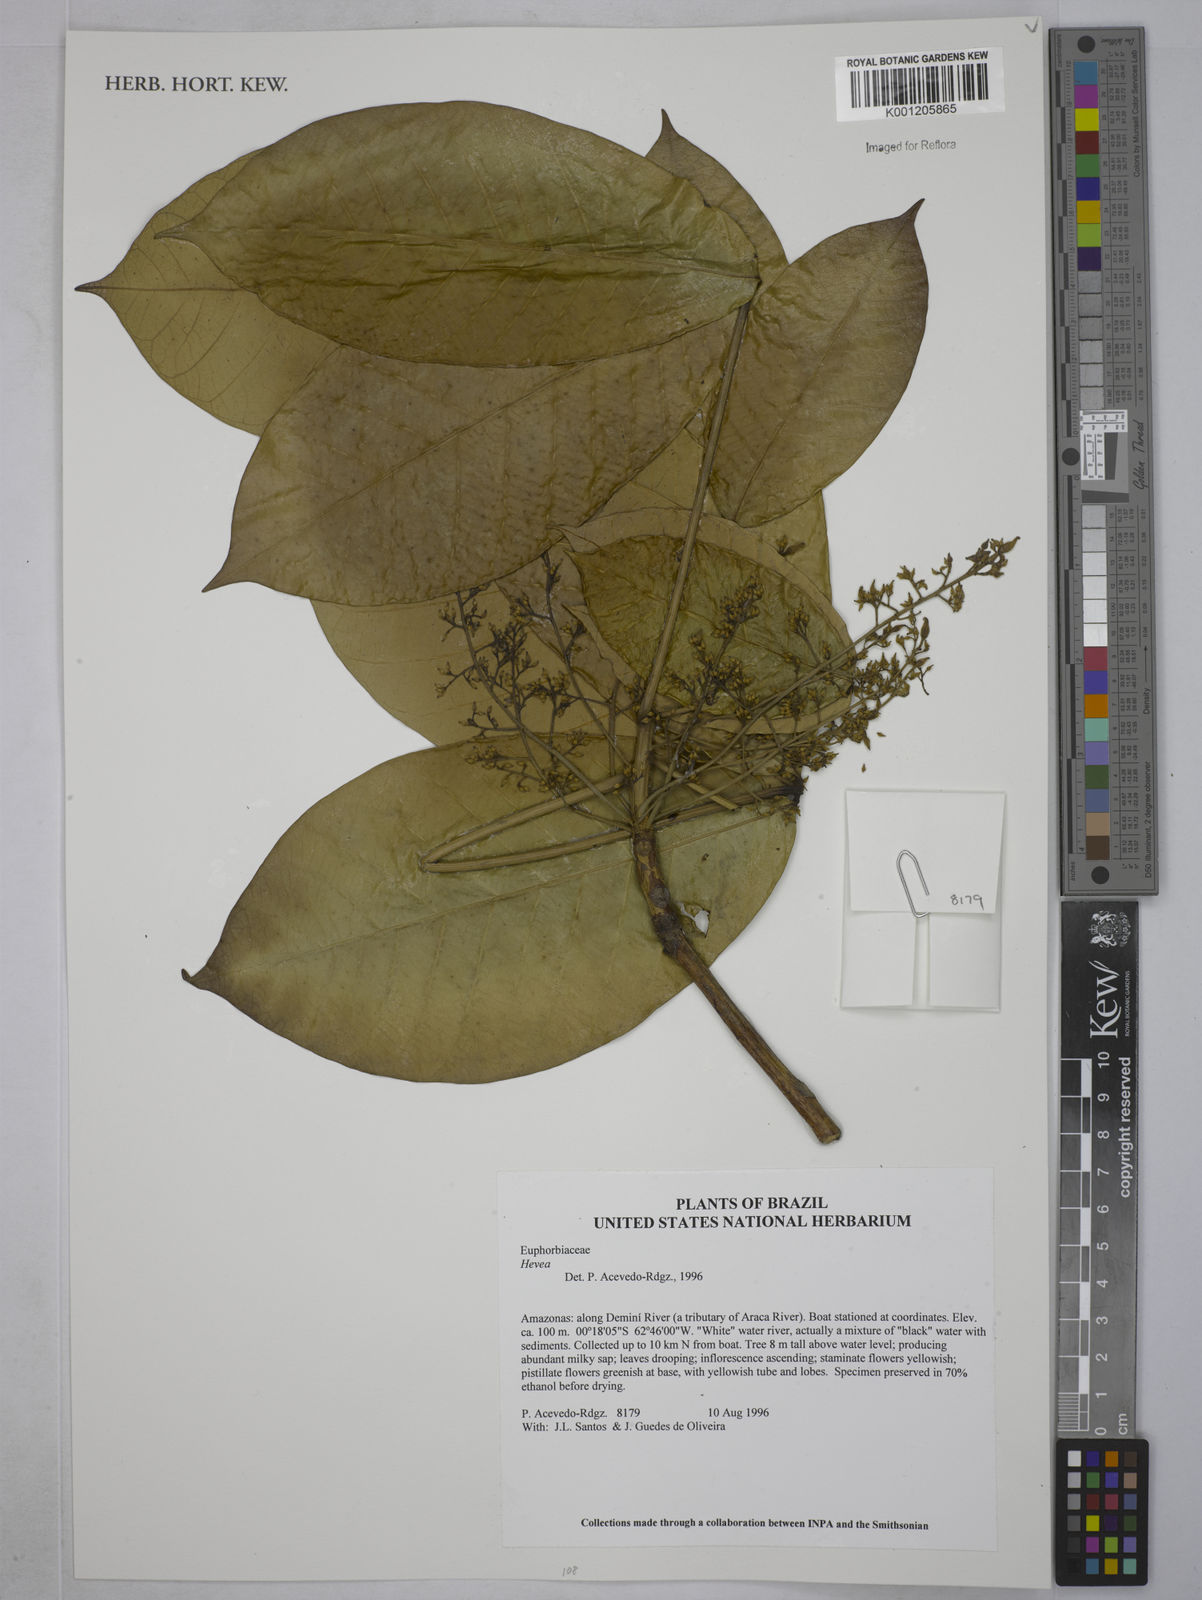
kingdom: Plantae
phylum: Tracheophyta
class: Magnoliopsida
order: Malpighiales
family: Euphorbiaceae
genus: Hevea
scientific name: Hevea
